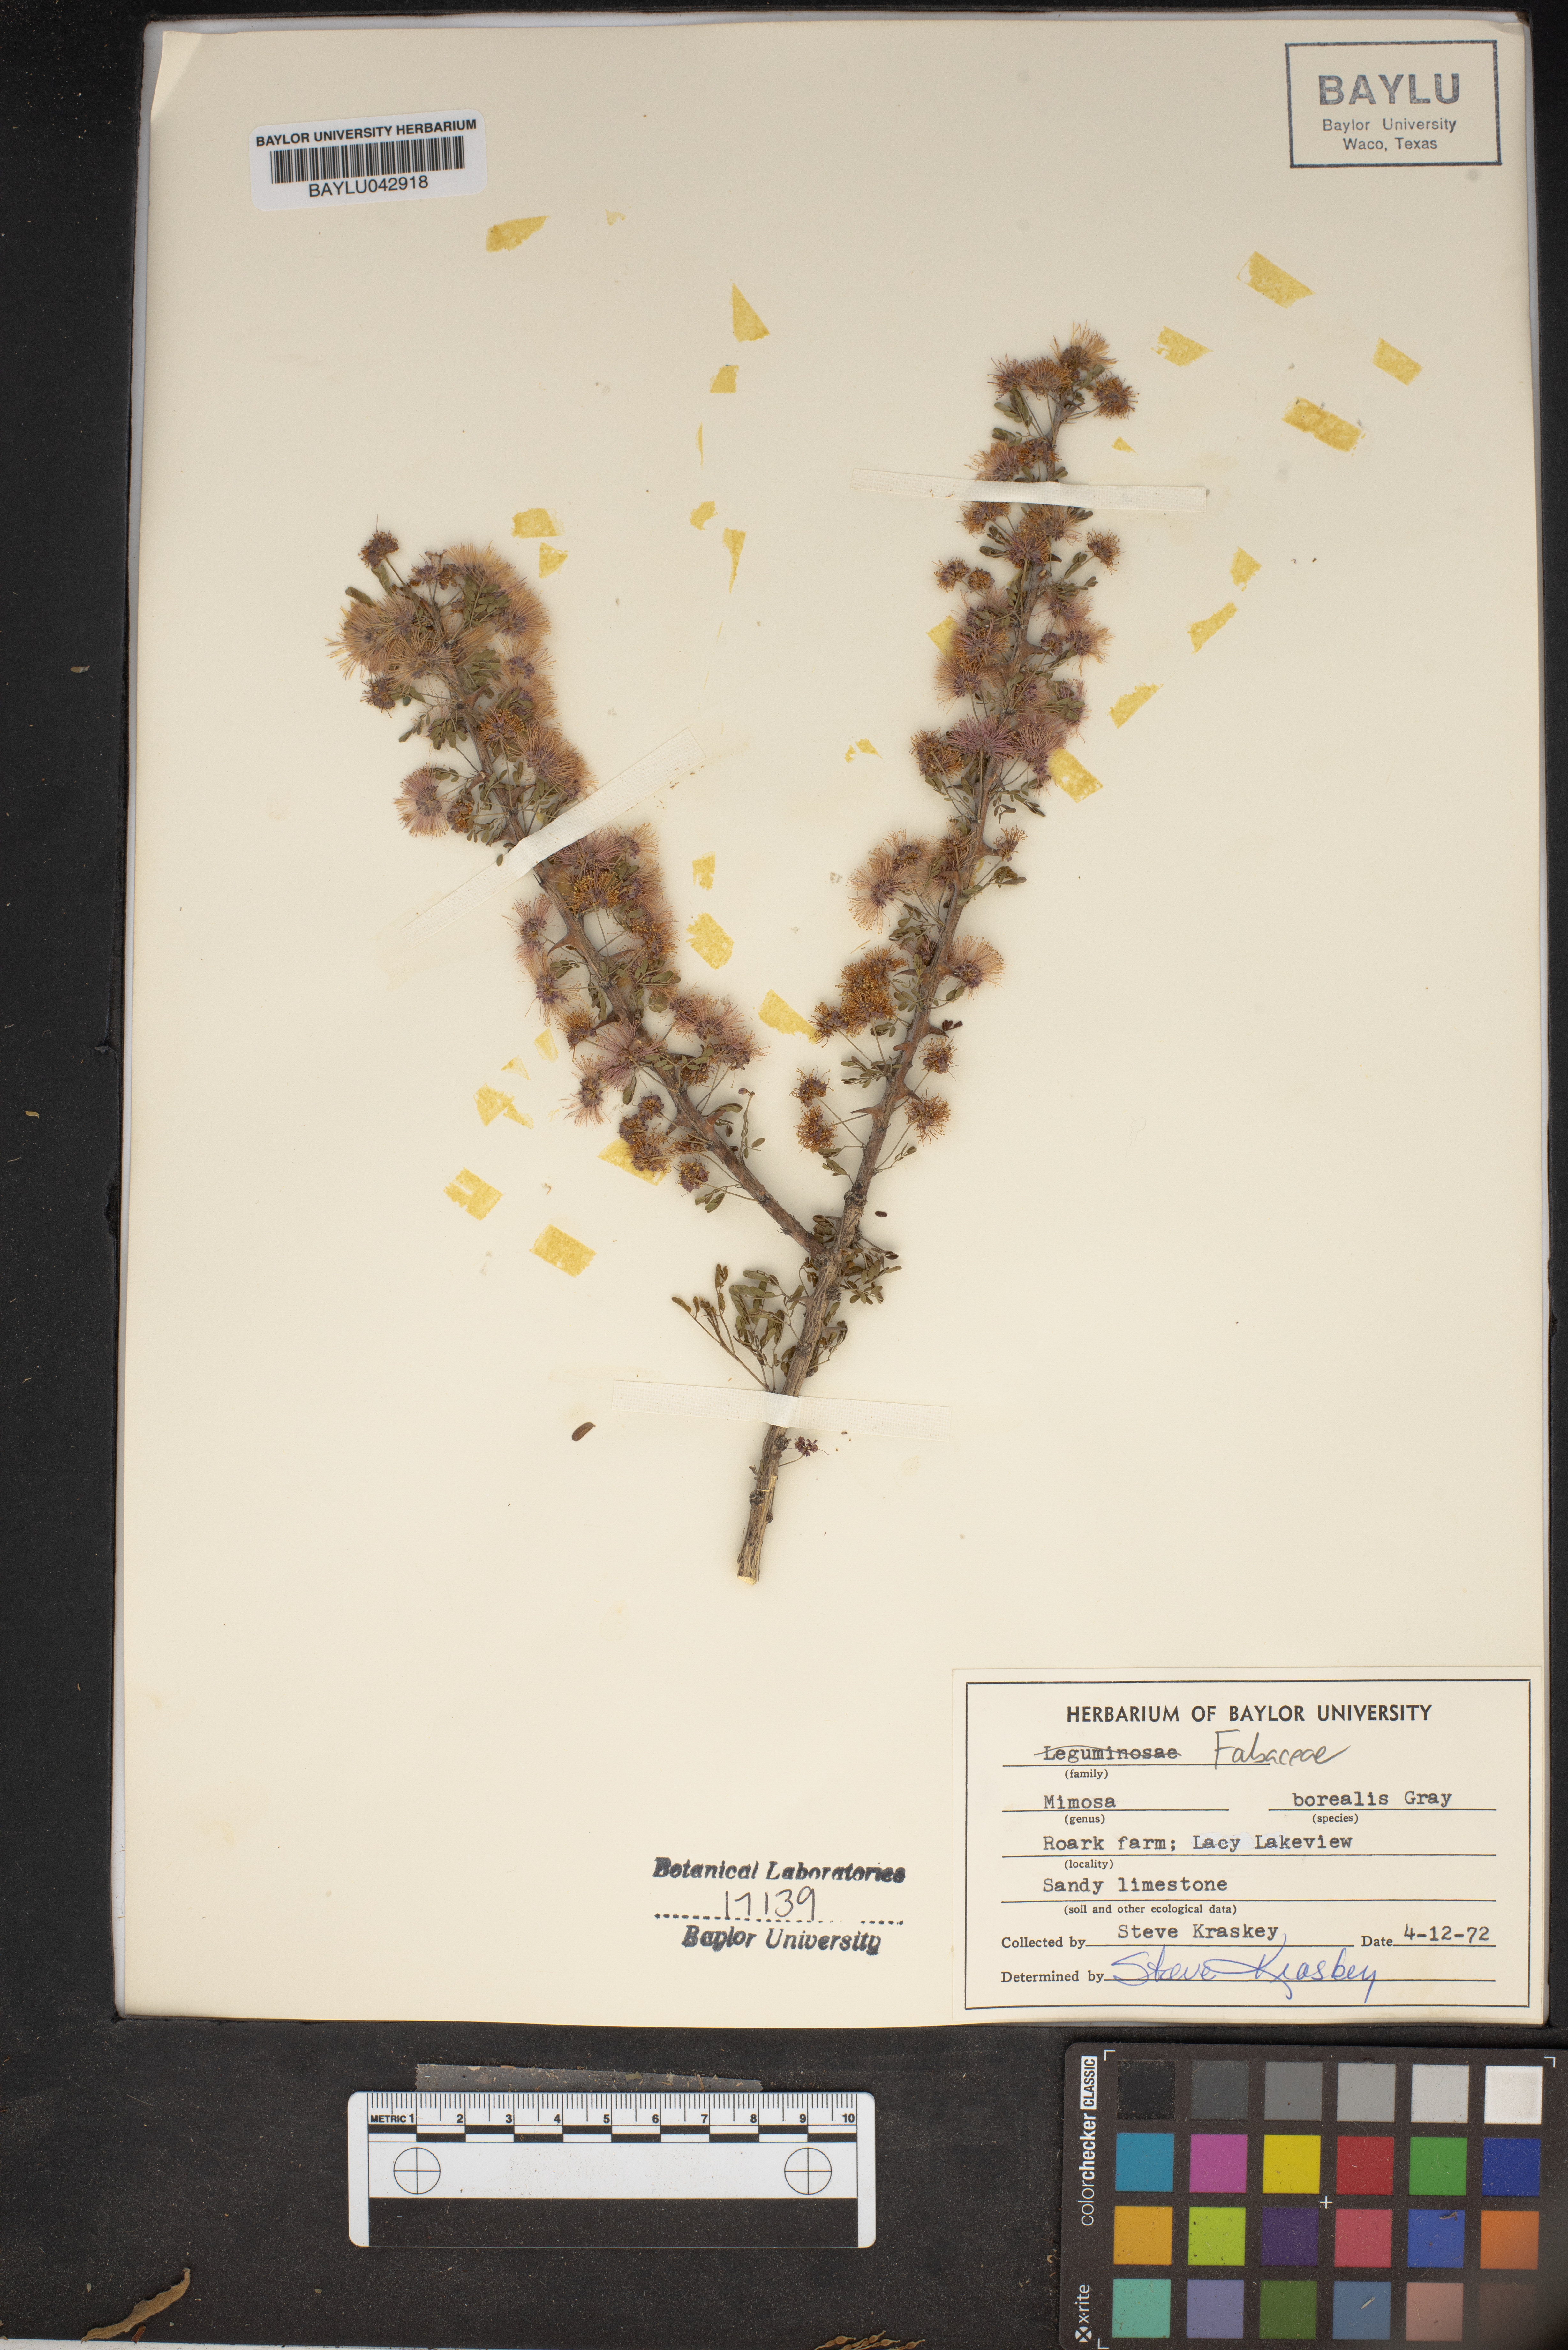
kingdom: Plantae
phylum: Tracheophyta
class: Magnoliopsida
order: Fabales
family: Fabaceae
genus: Mimosa
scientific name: Mimosa borealis
